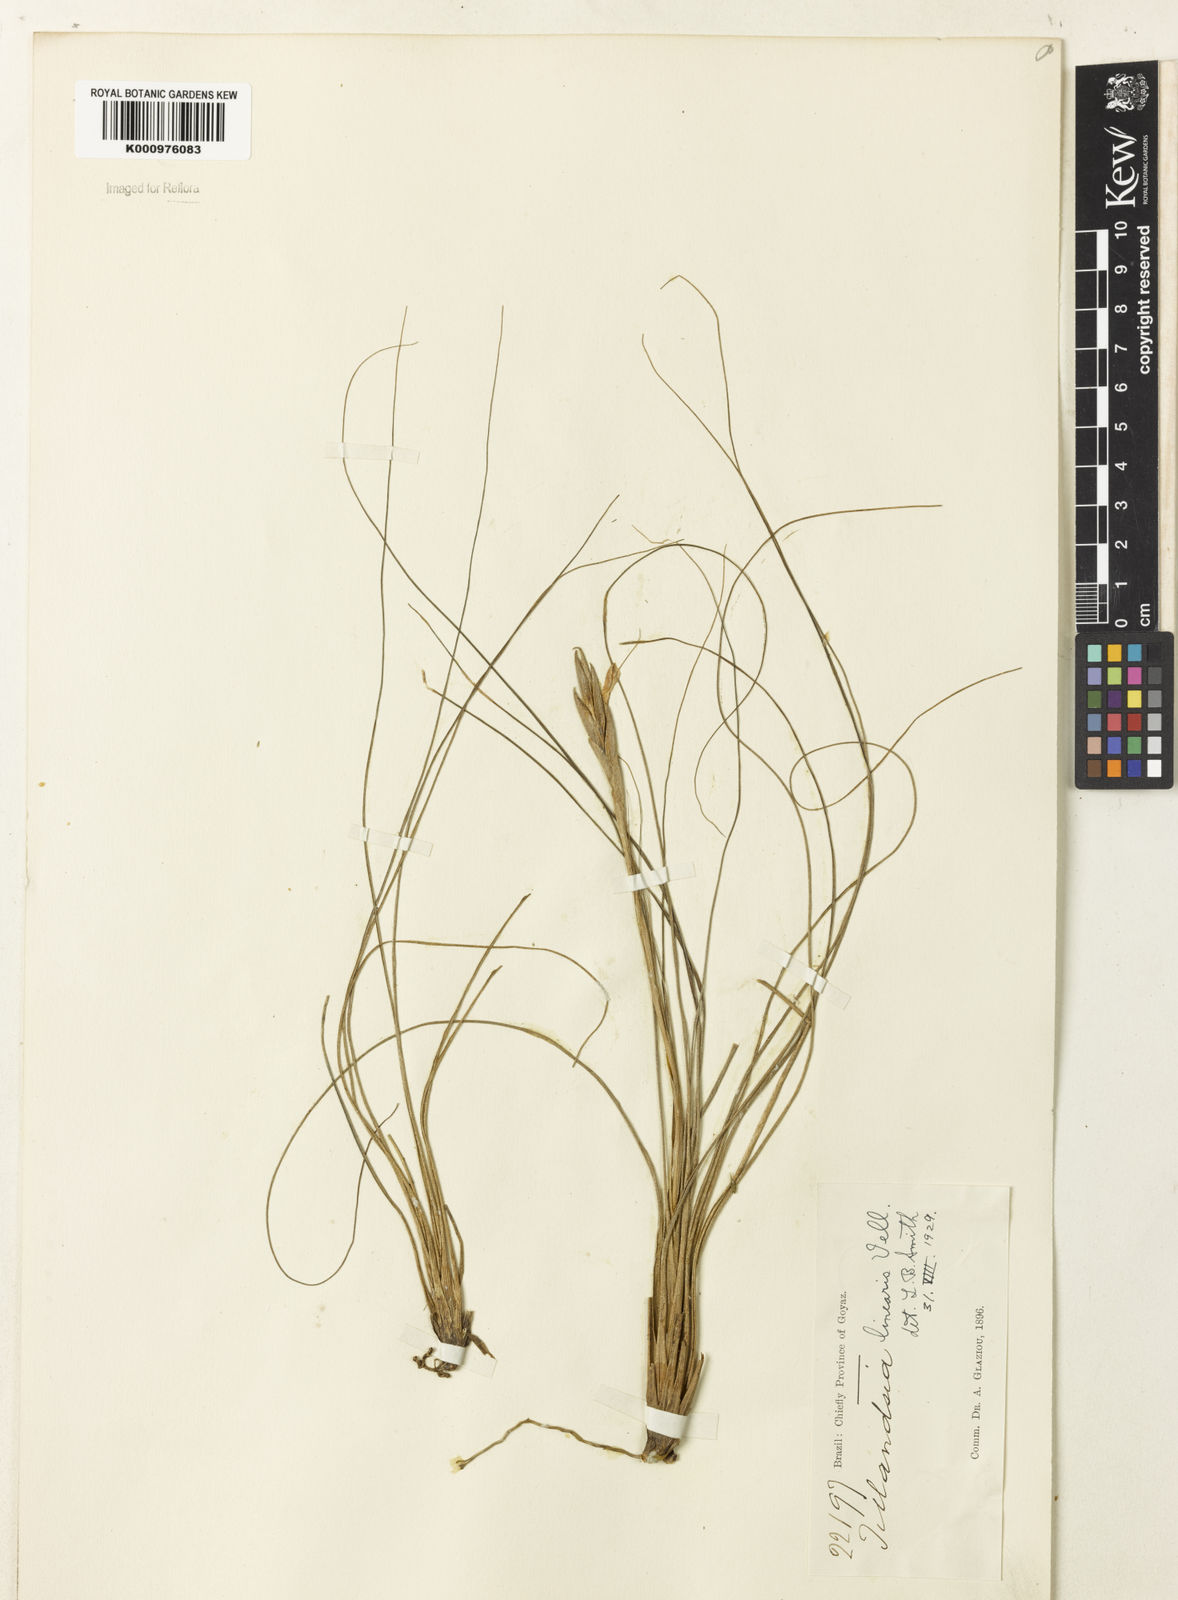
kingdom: Plantae
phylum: Tracheophyta
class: Liliopsida
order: Poales
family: Bromeliaceae
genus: Tillandsia
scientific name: Tillandsia linearis
